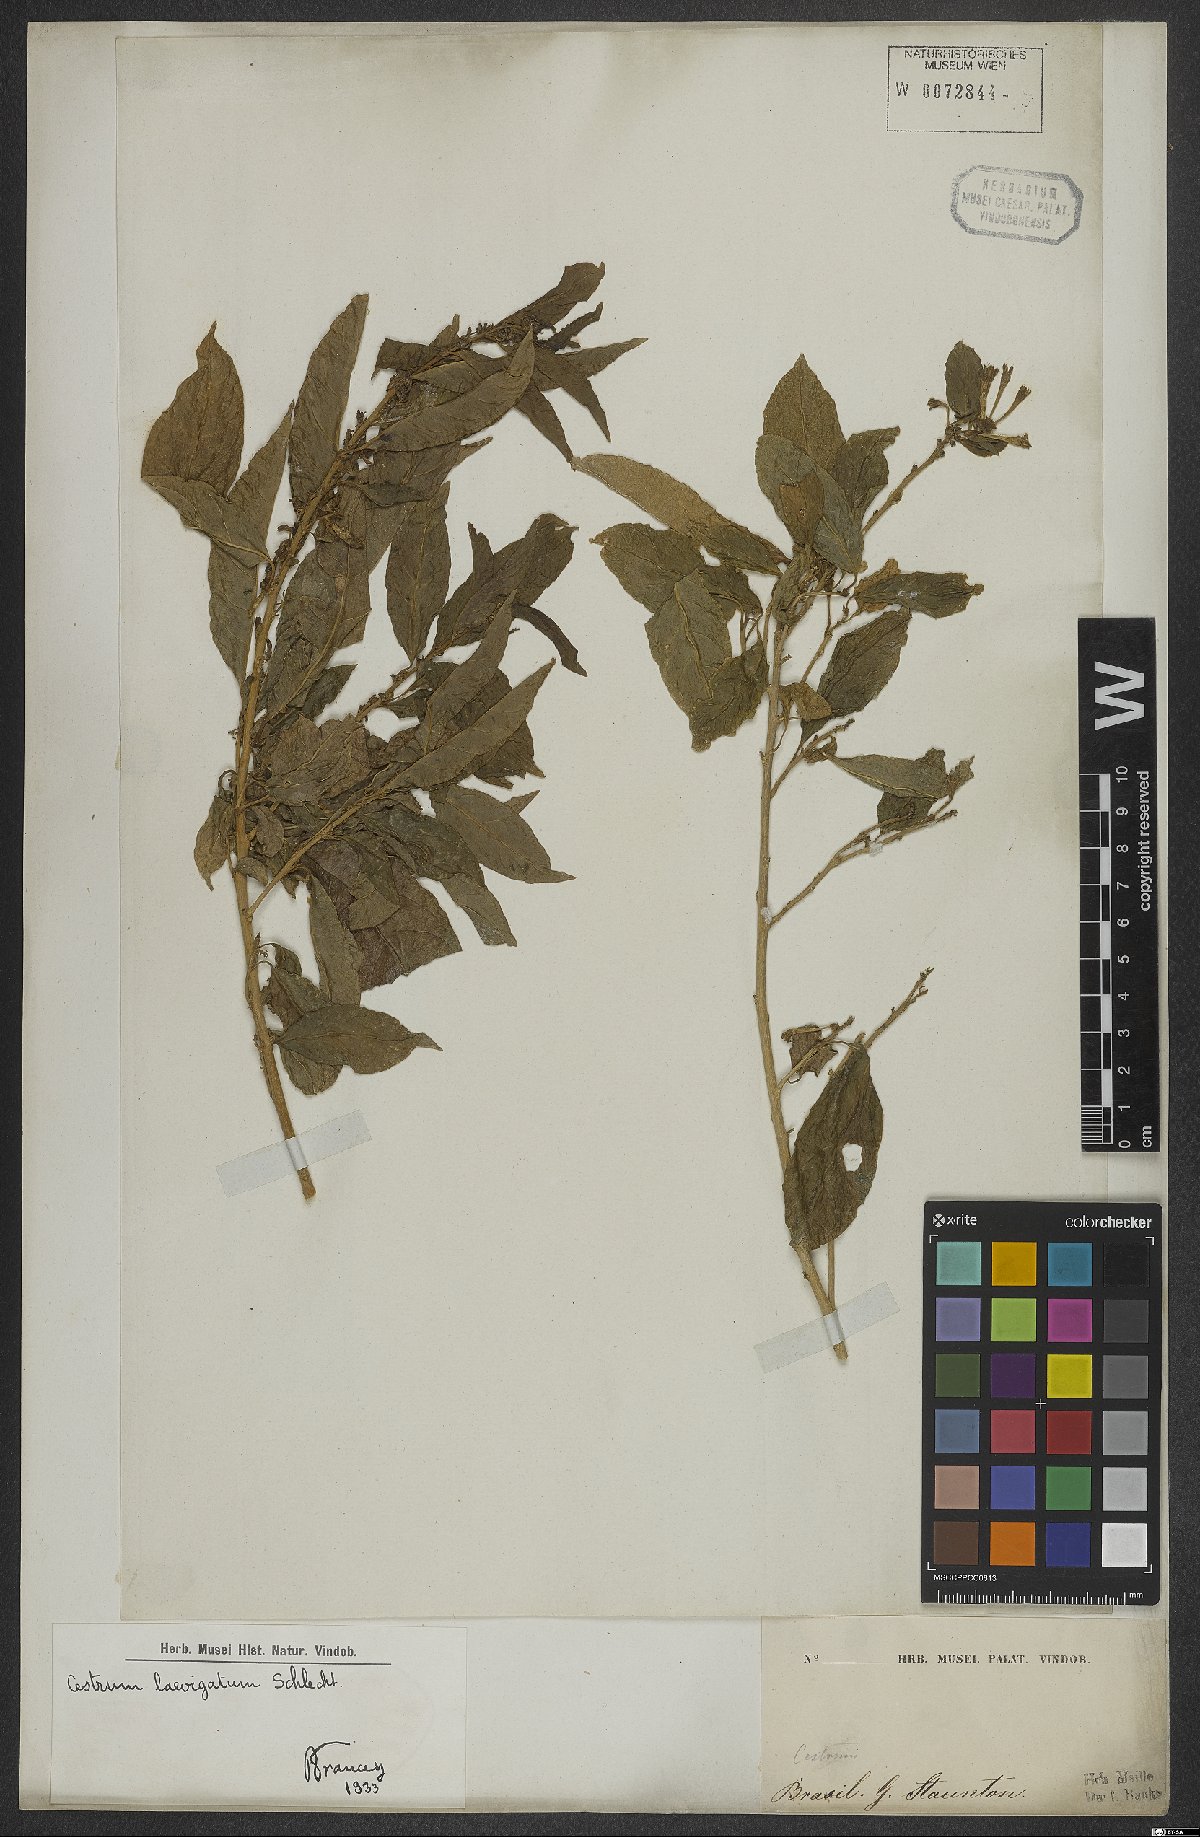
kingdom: Plantae
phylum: Tracheophyta
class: Magnoliopsida
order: Solanales
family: Solanaceae
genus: Cestrum
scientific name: Cestrum laevigatum
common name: Inkberry
